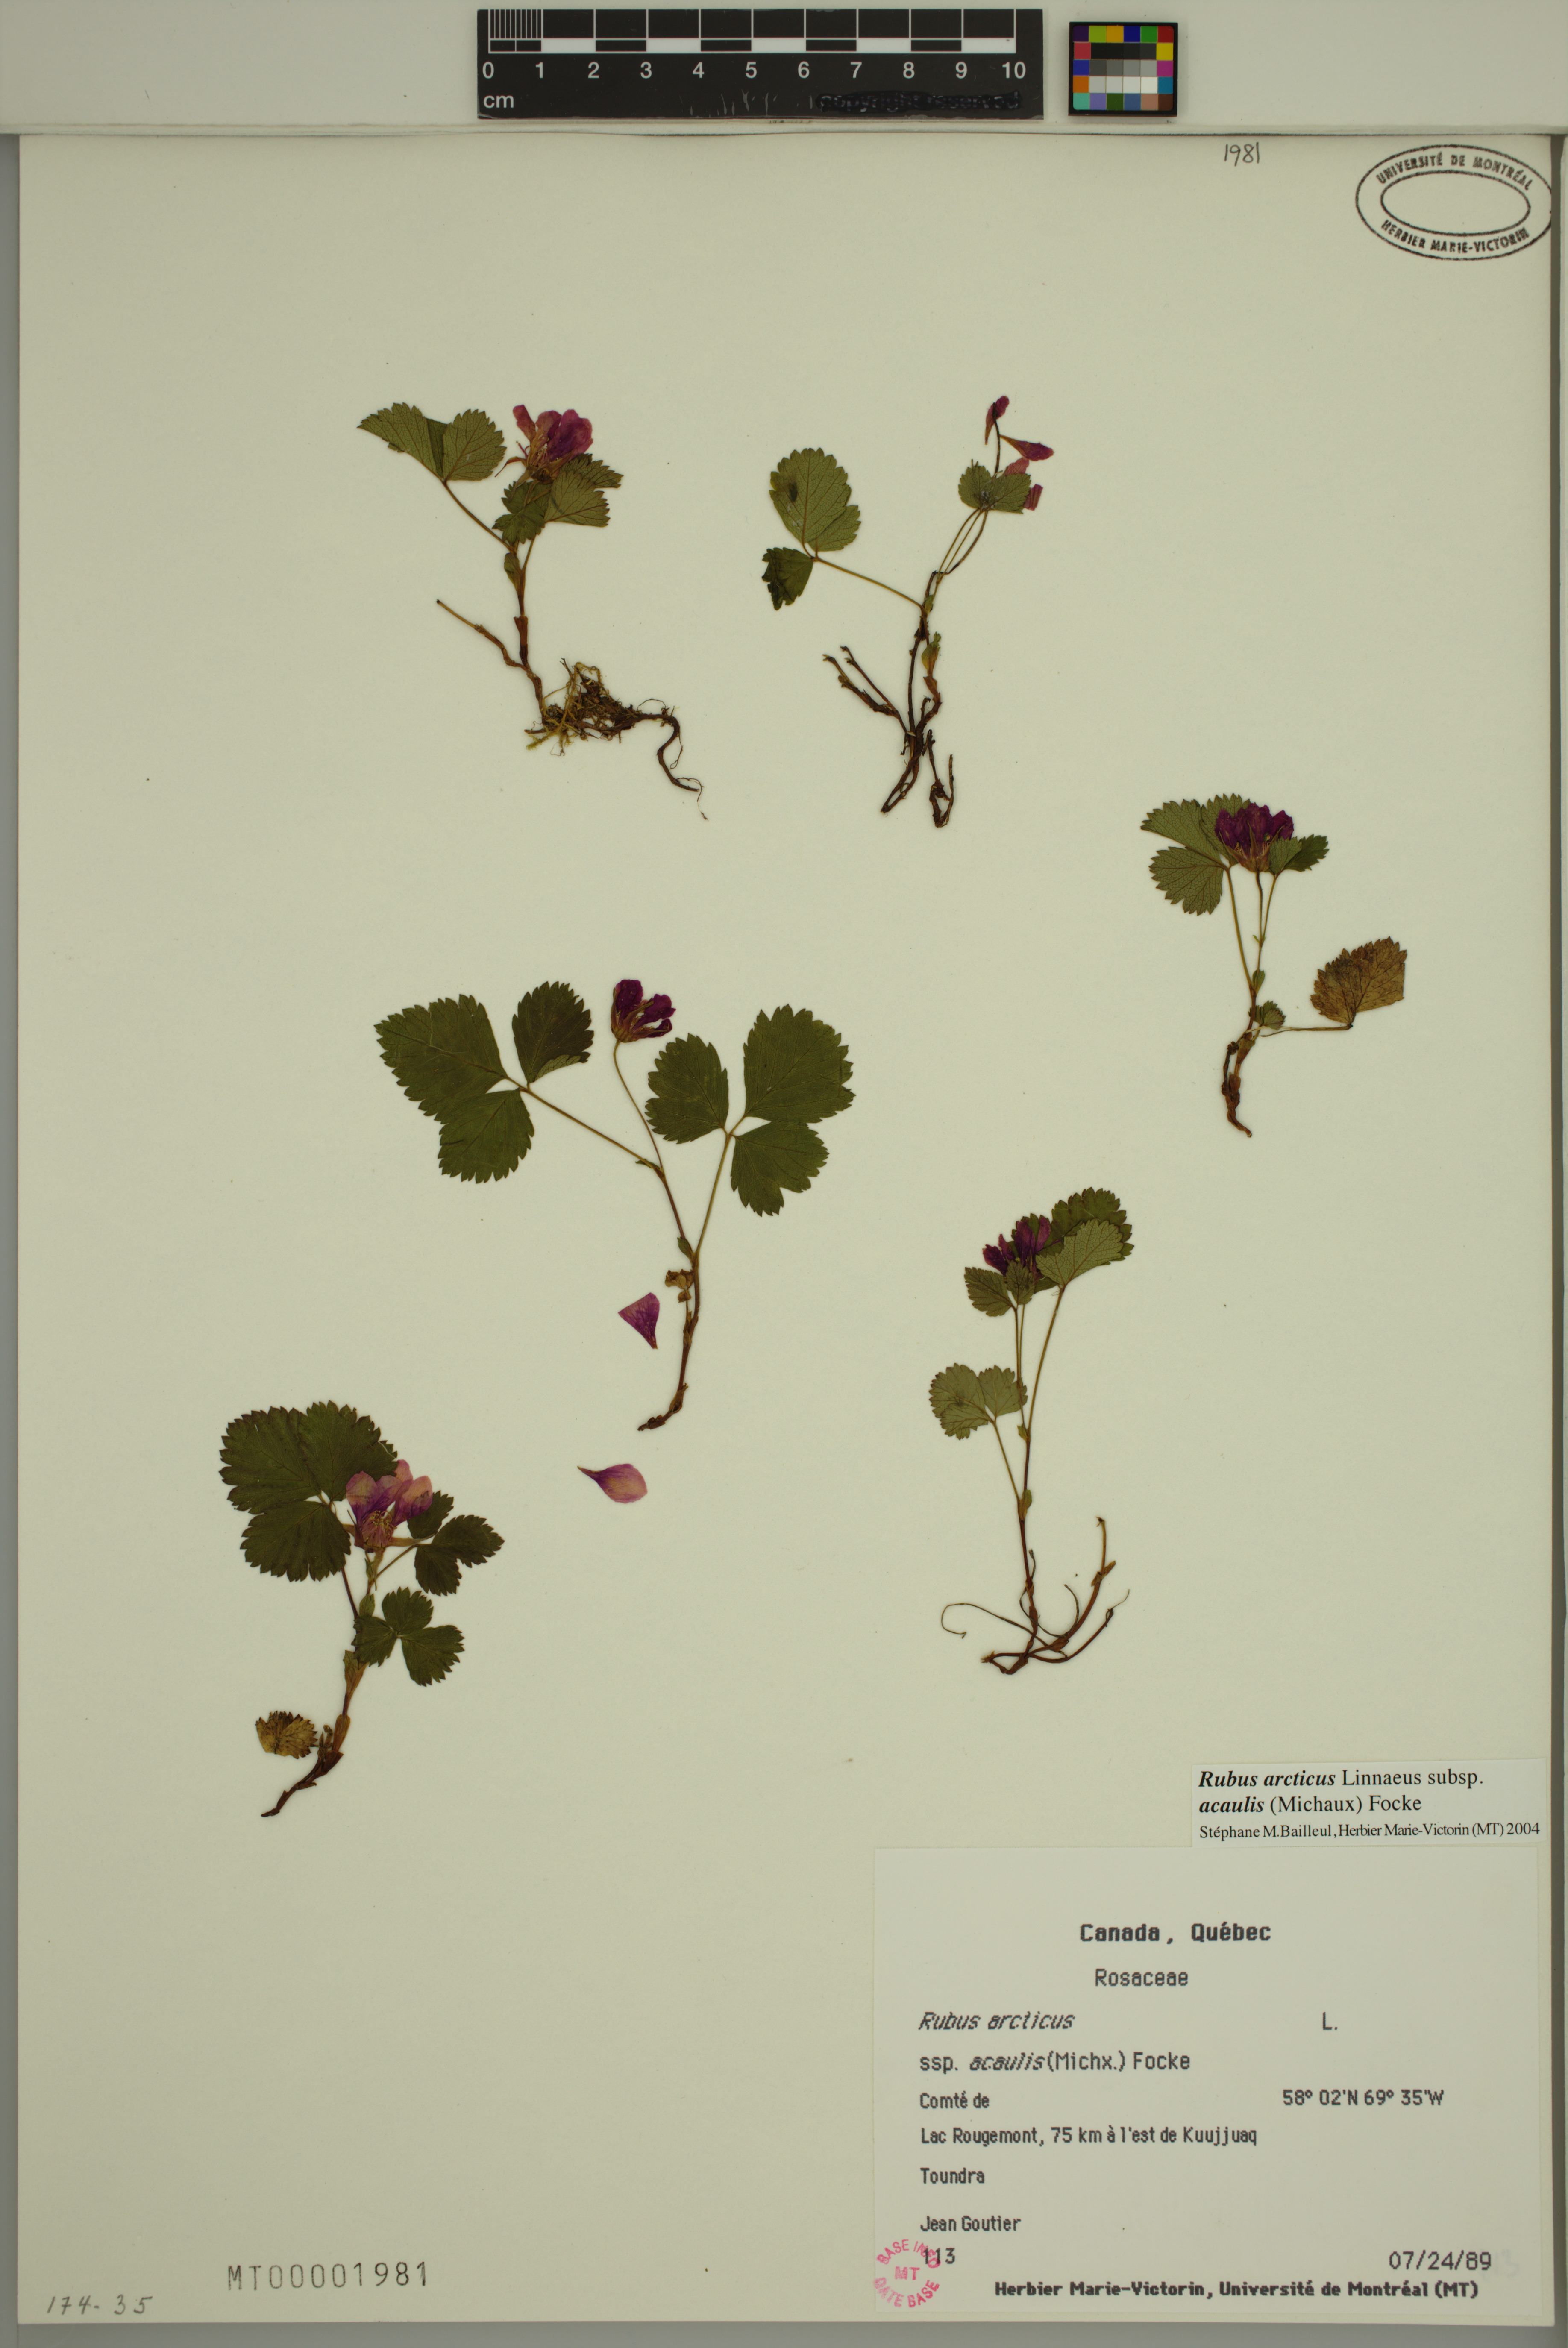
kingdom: Plantae
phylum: Tracheophyta
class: Magnoliopsida
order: Rosales
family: Rosaceae
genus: Rubus
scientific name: Rubus arcticus
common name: Arctic bramble
